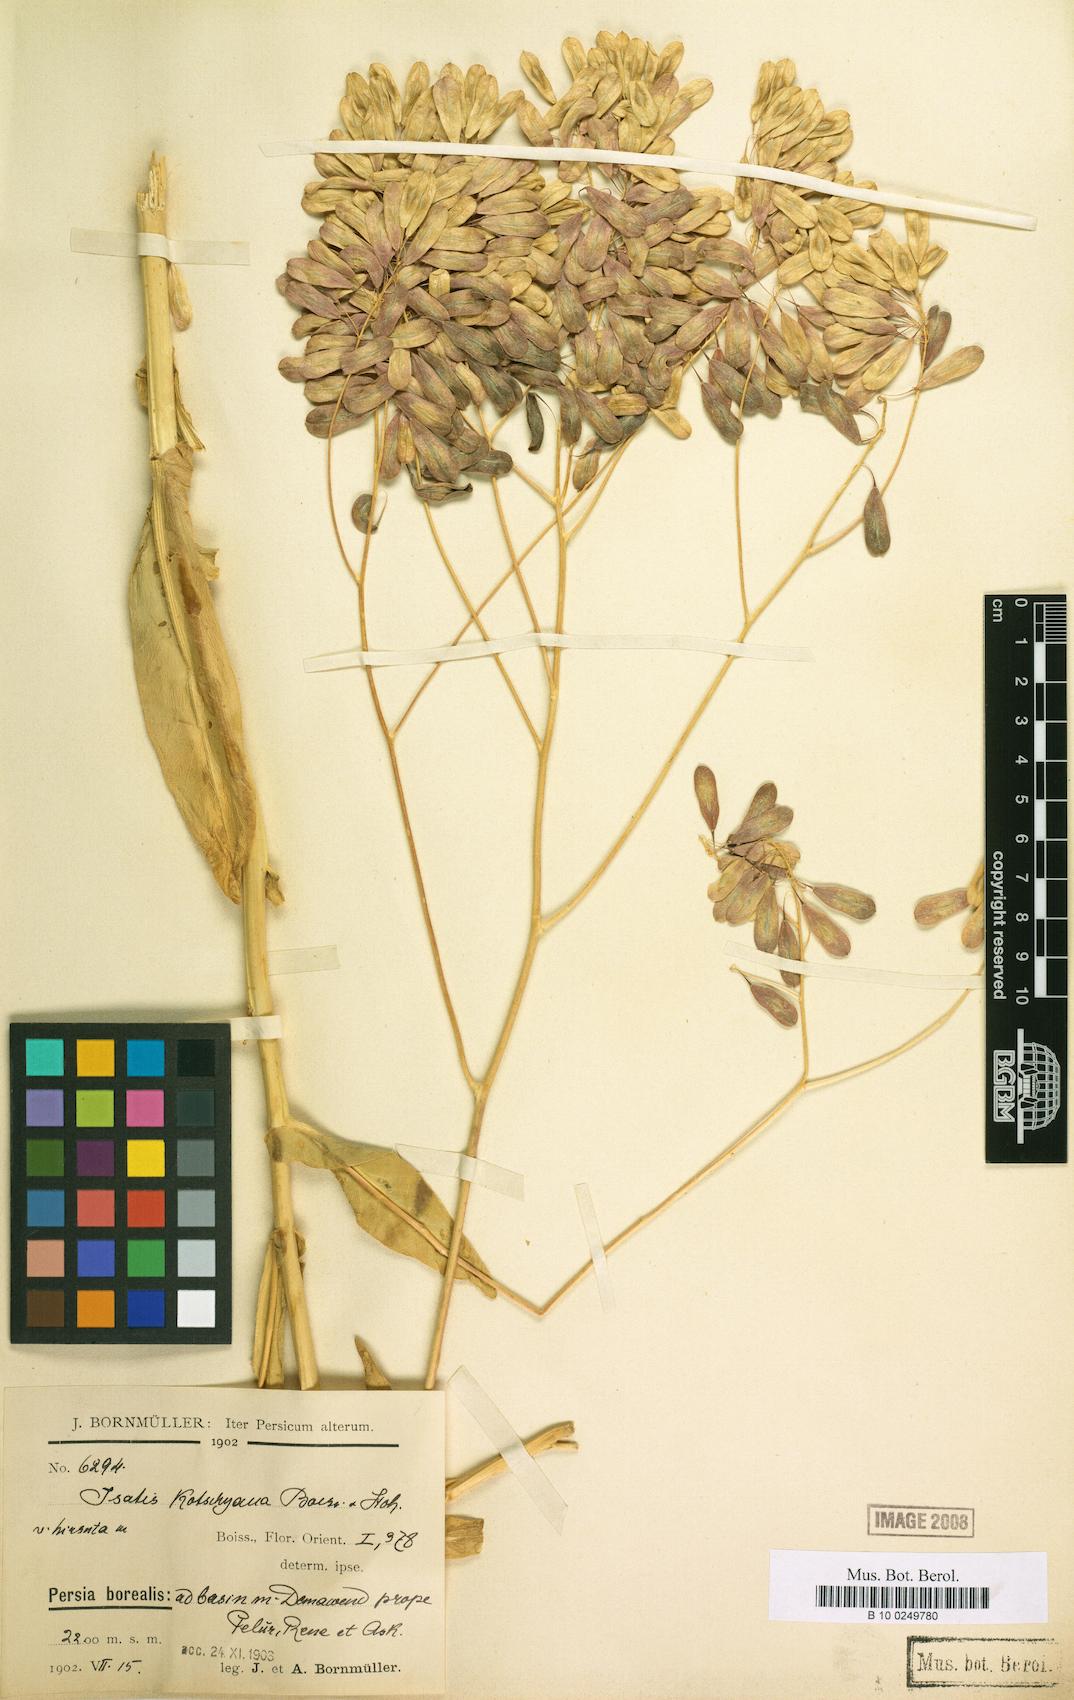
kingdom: Plantae
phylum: Tracheophyta
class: Magnoliopsida
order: Brassicales
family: Brassicaceae
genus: Isatis
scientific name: Isatis kotschyana
